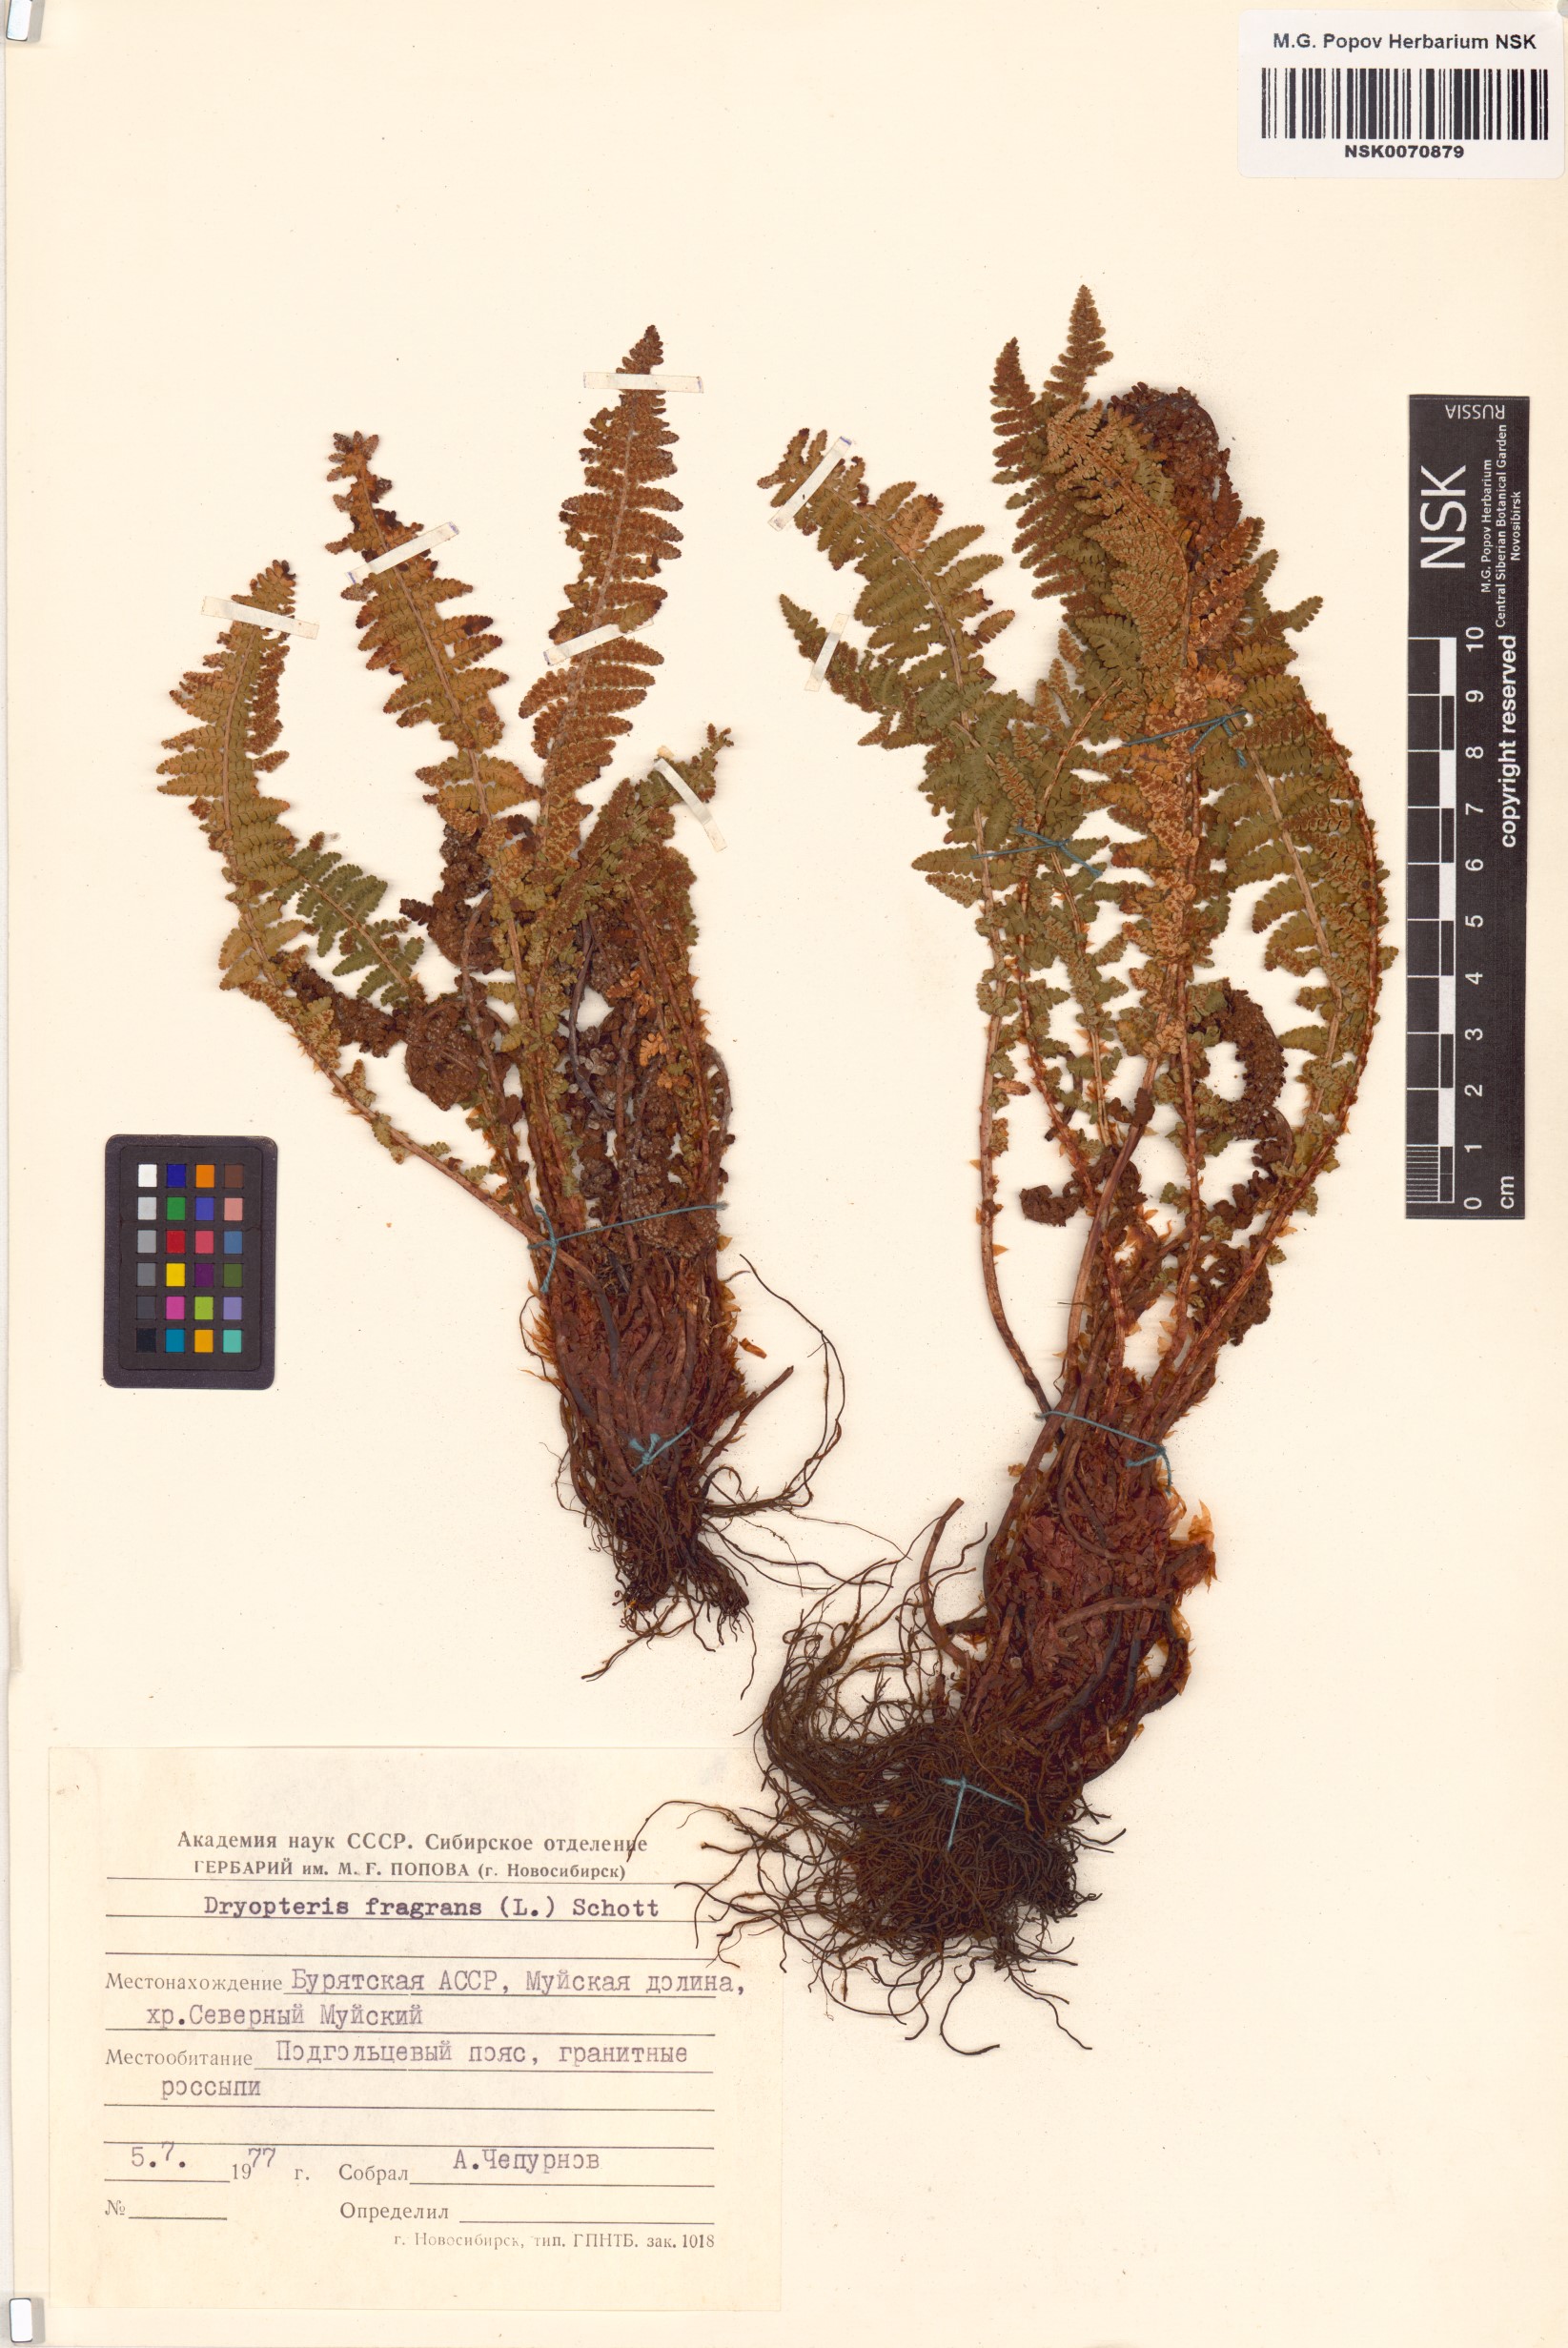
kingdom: Plantae
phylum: Tracheophyta
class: Polypodiopsida
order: Polypodiales
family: Dryopteridaceae
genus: Dryopteris
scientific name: Dryopteris fragrans
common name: Fragrant wood fern
